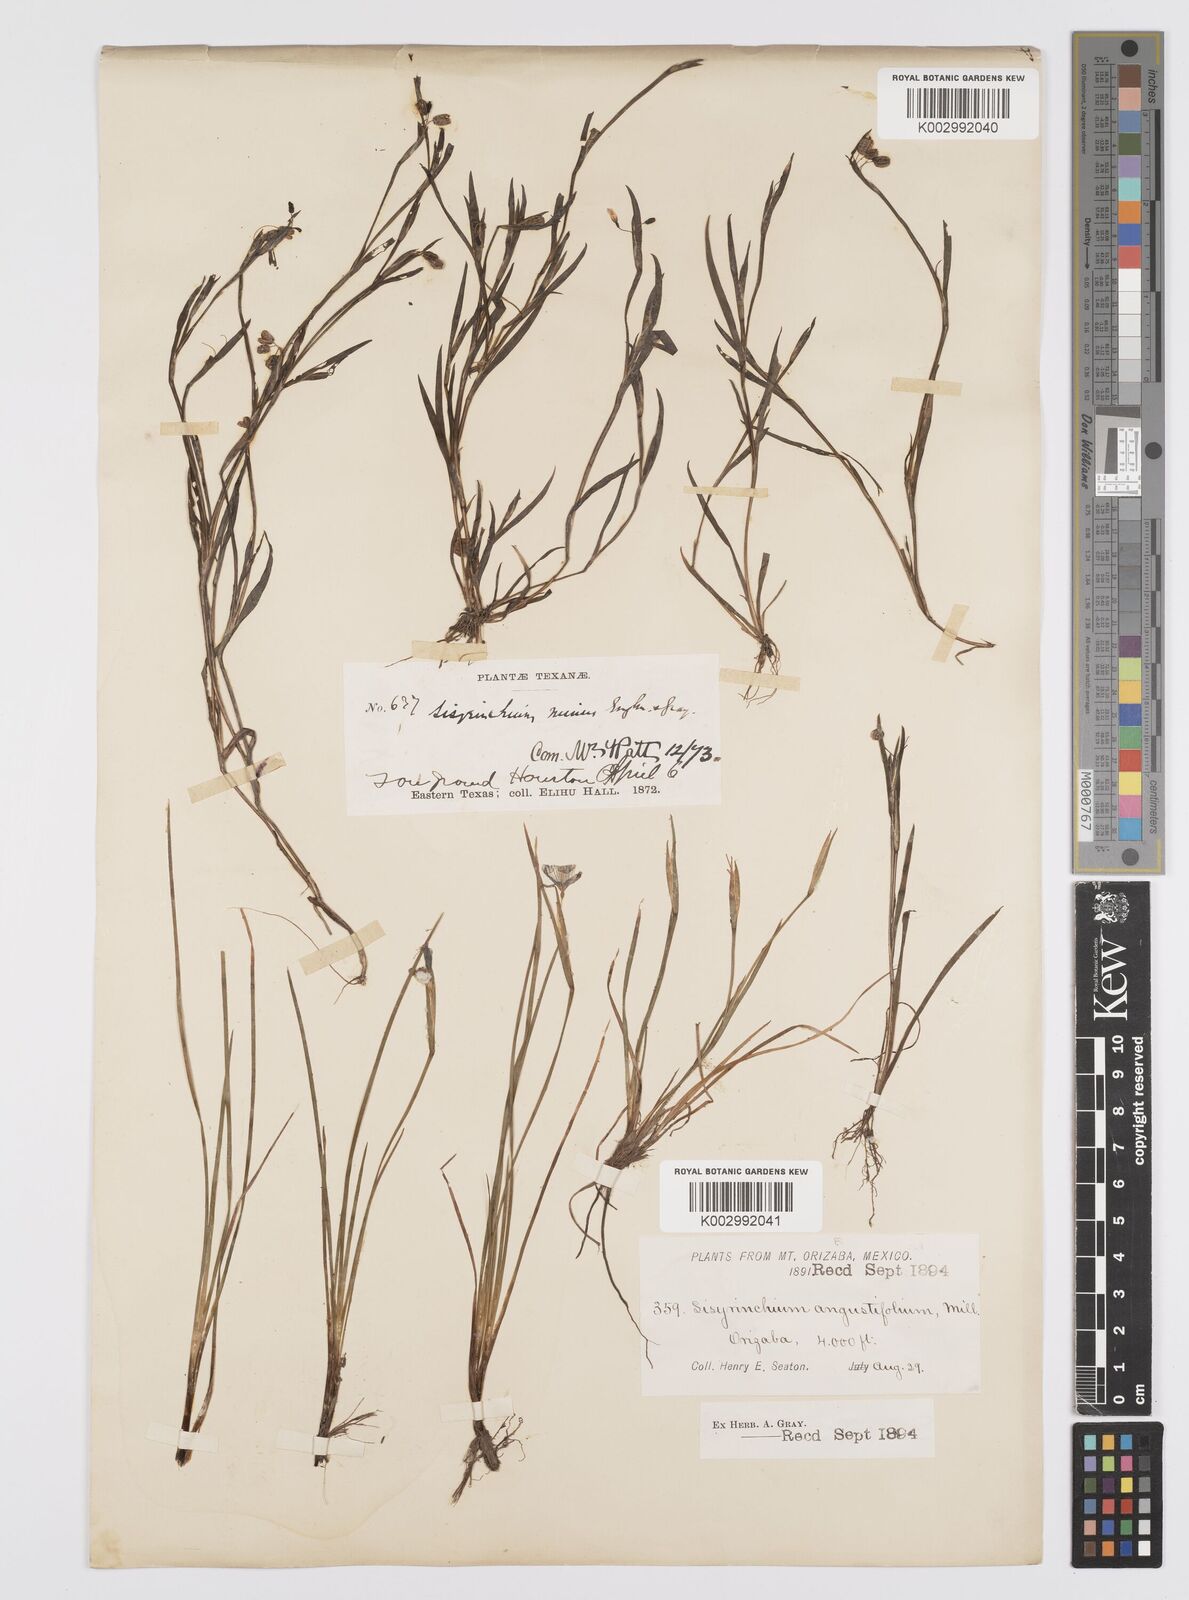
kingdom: Plantae
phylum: Tracheophyta
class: Liliopsida
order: Asparagales
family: Iridaceae
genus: Sisyrinchium
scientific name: Sisyrinchium angustifolium
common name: Narrow-leaf blue-eyed-grass
